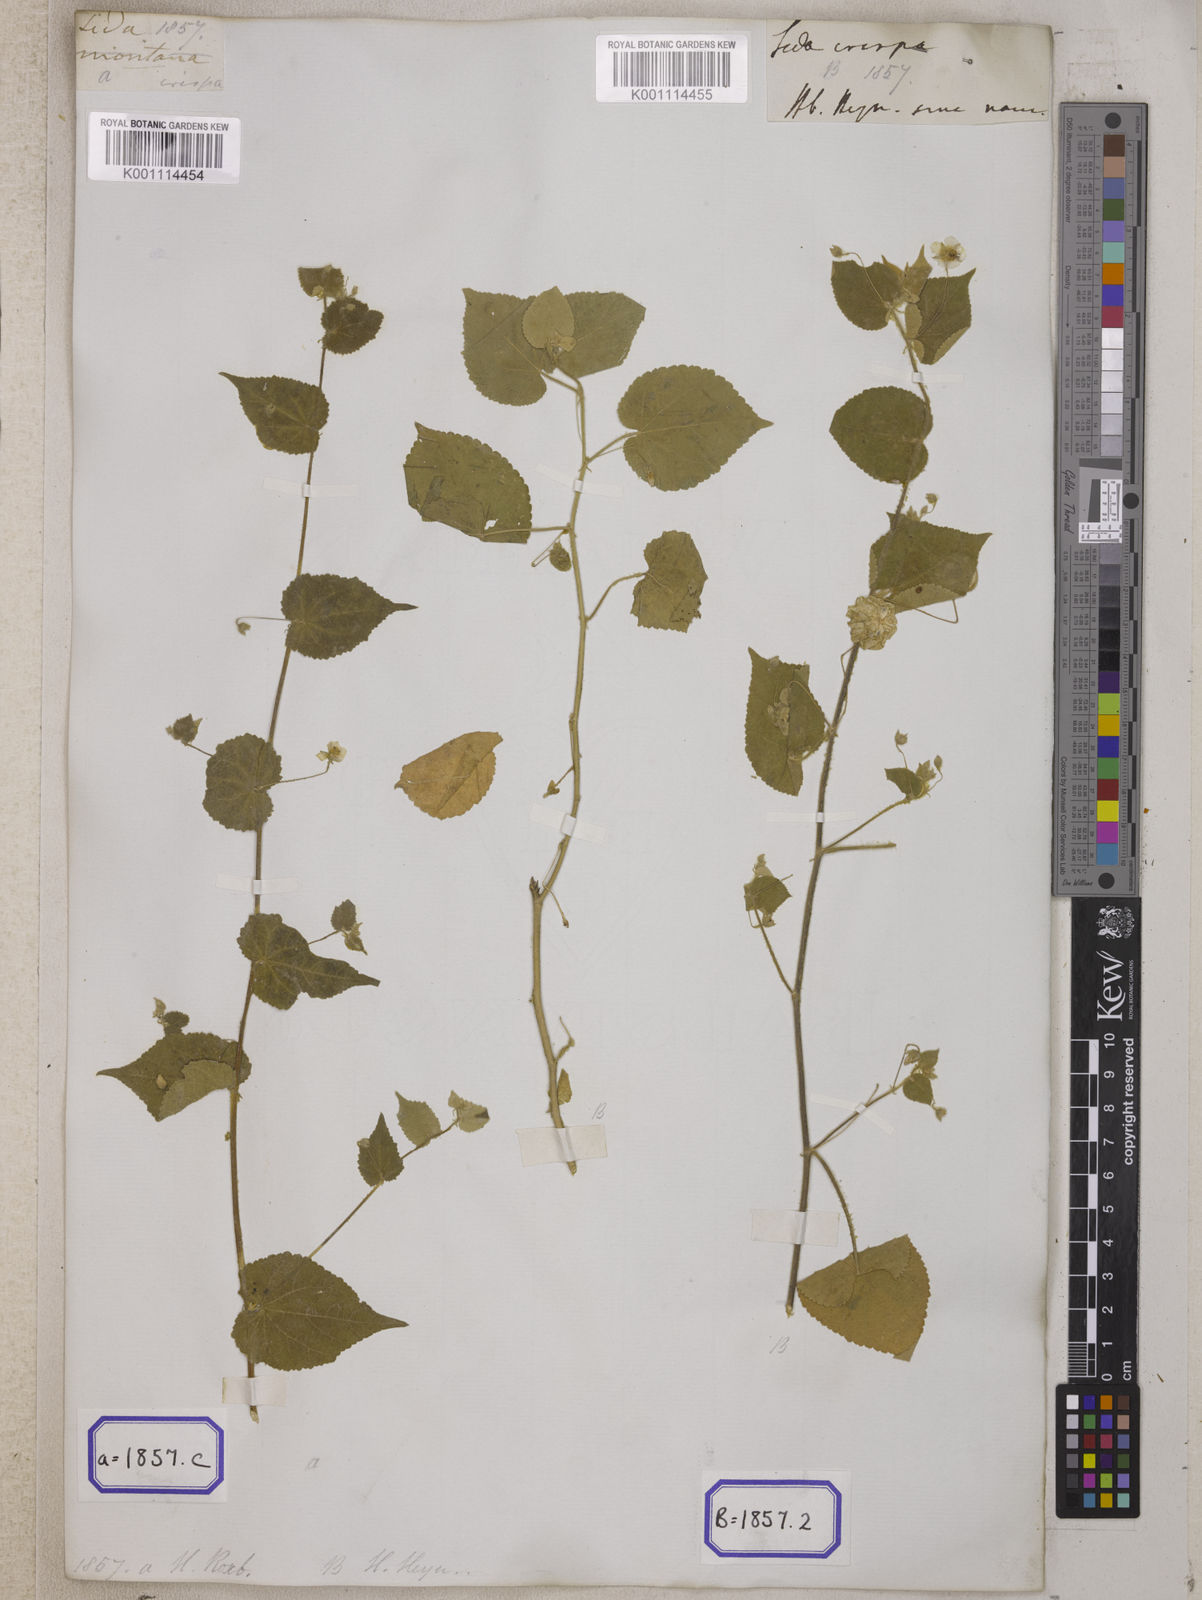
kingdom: Plantae
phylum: Tracheophyta
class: Magnoliopsida
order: Malvales
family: Malvaceae
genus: Herissantia
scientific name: Herissantia crispa
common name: Bladdermallow
